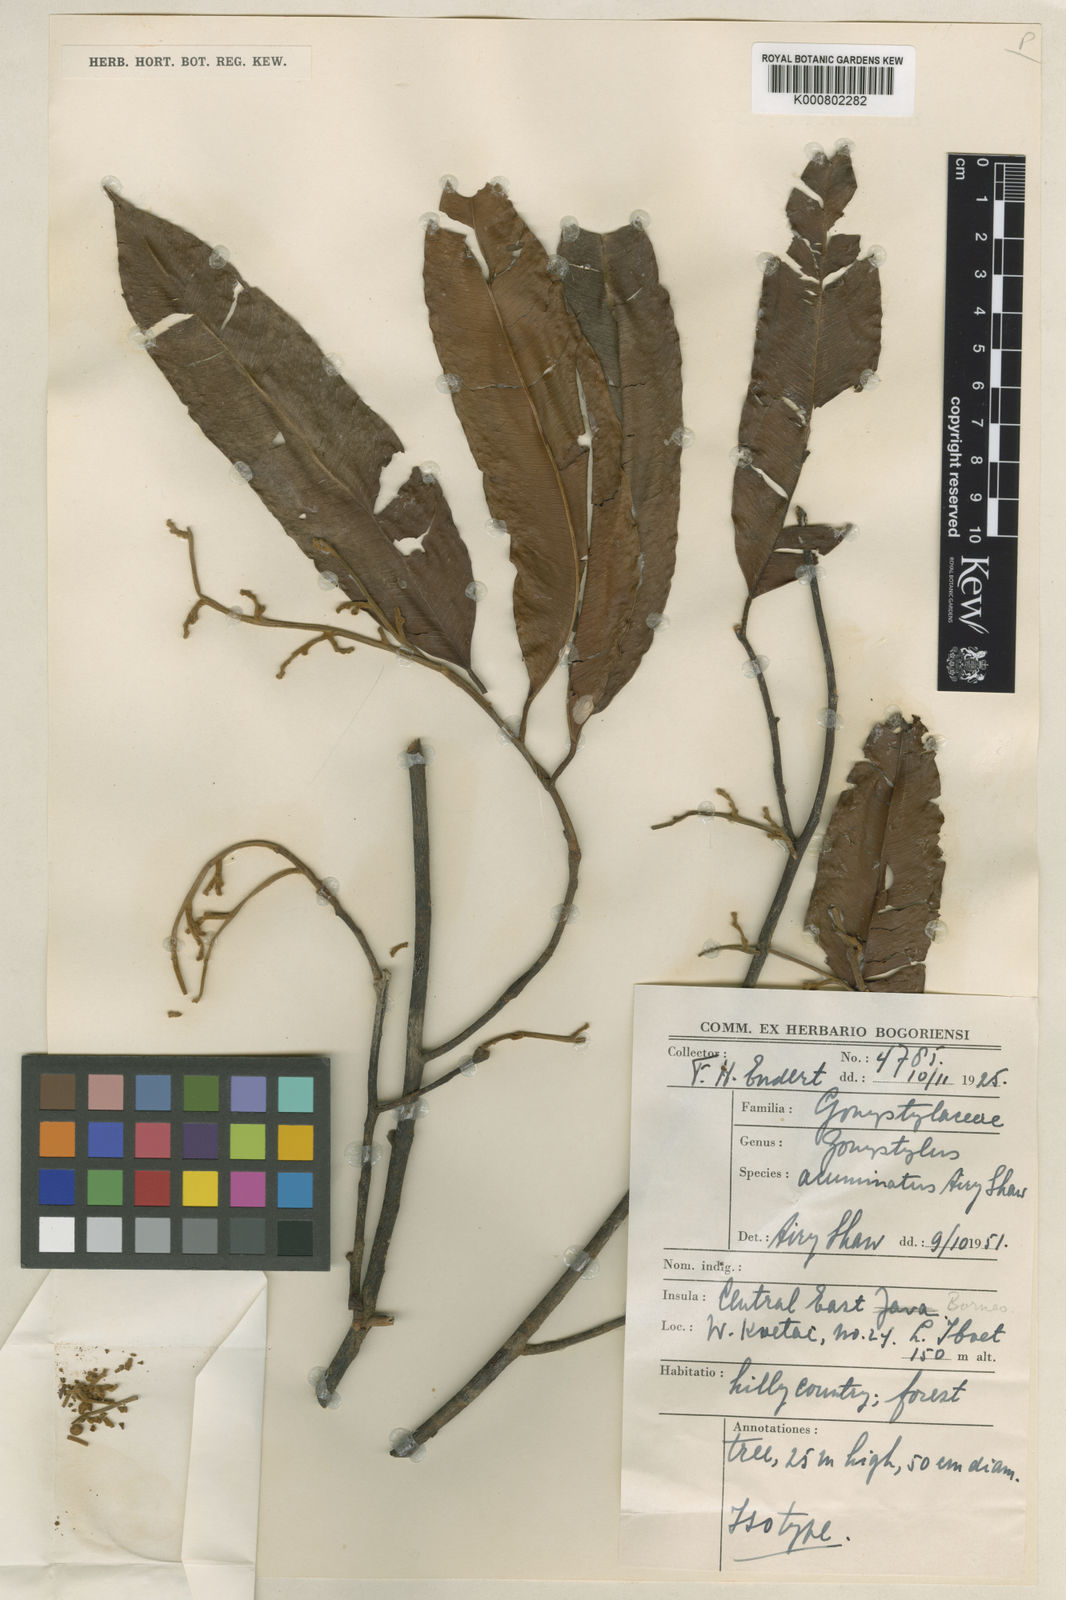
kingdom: Plantae
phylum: Tracheophyta
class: Magnoliopsida
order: Malvales
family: Thymelaeaceae
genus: Gonystylus
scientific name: Gonystylus acuminatus
